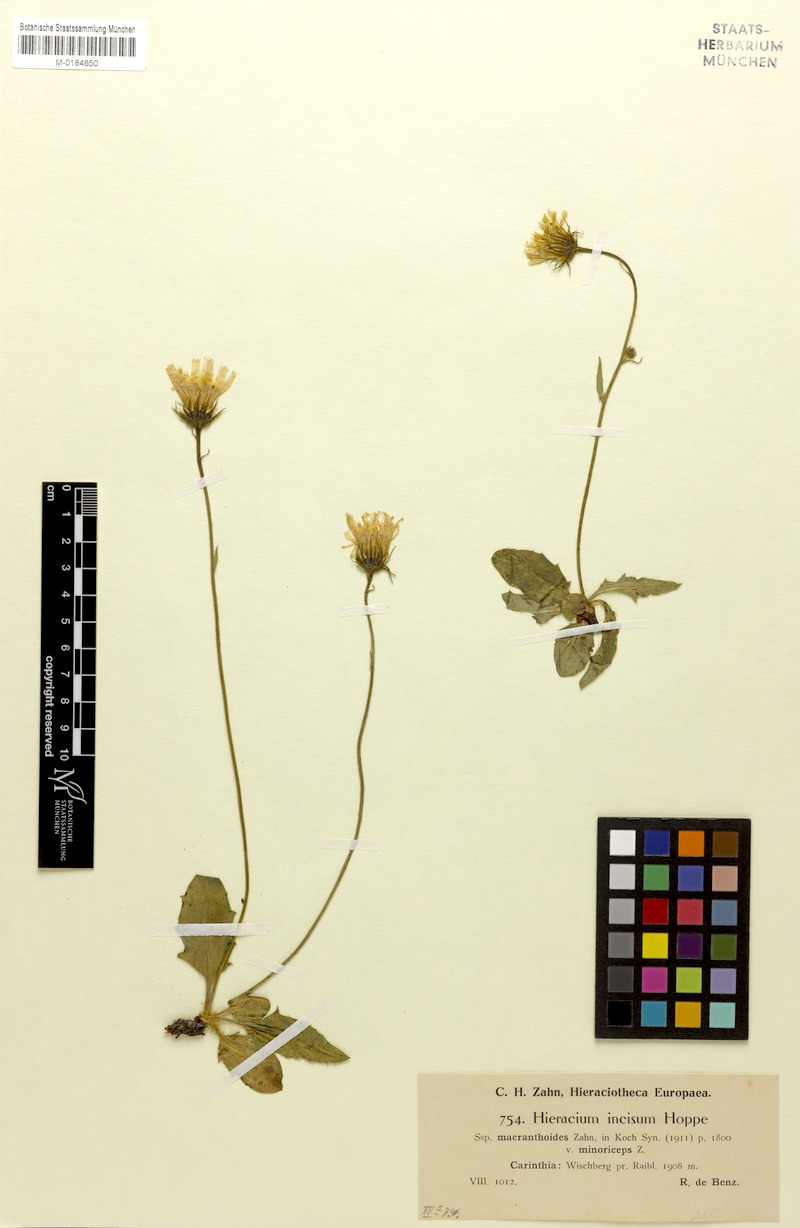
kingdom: Plantae
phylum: Tracheophyta
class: Magnoliopsida
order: Asterales
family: Asteraceae
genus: Hieracium
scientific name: Hieracium pallescens
